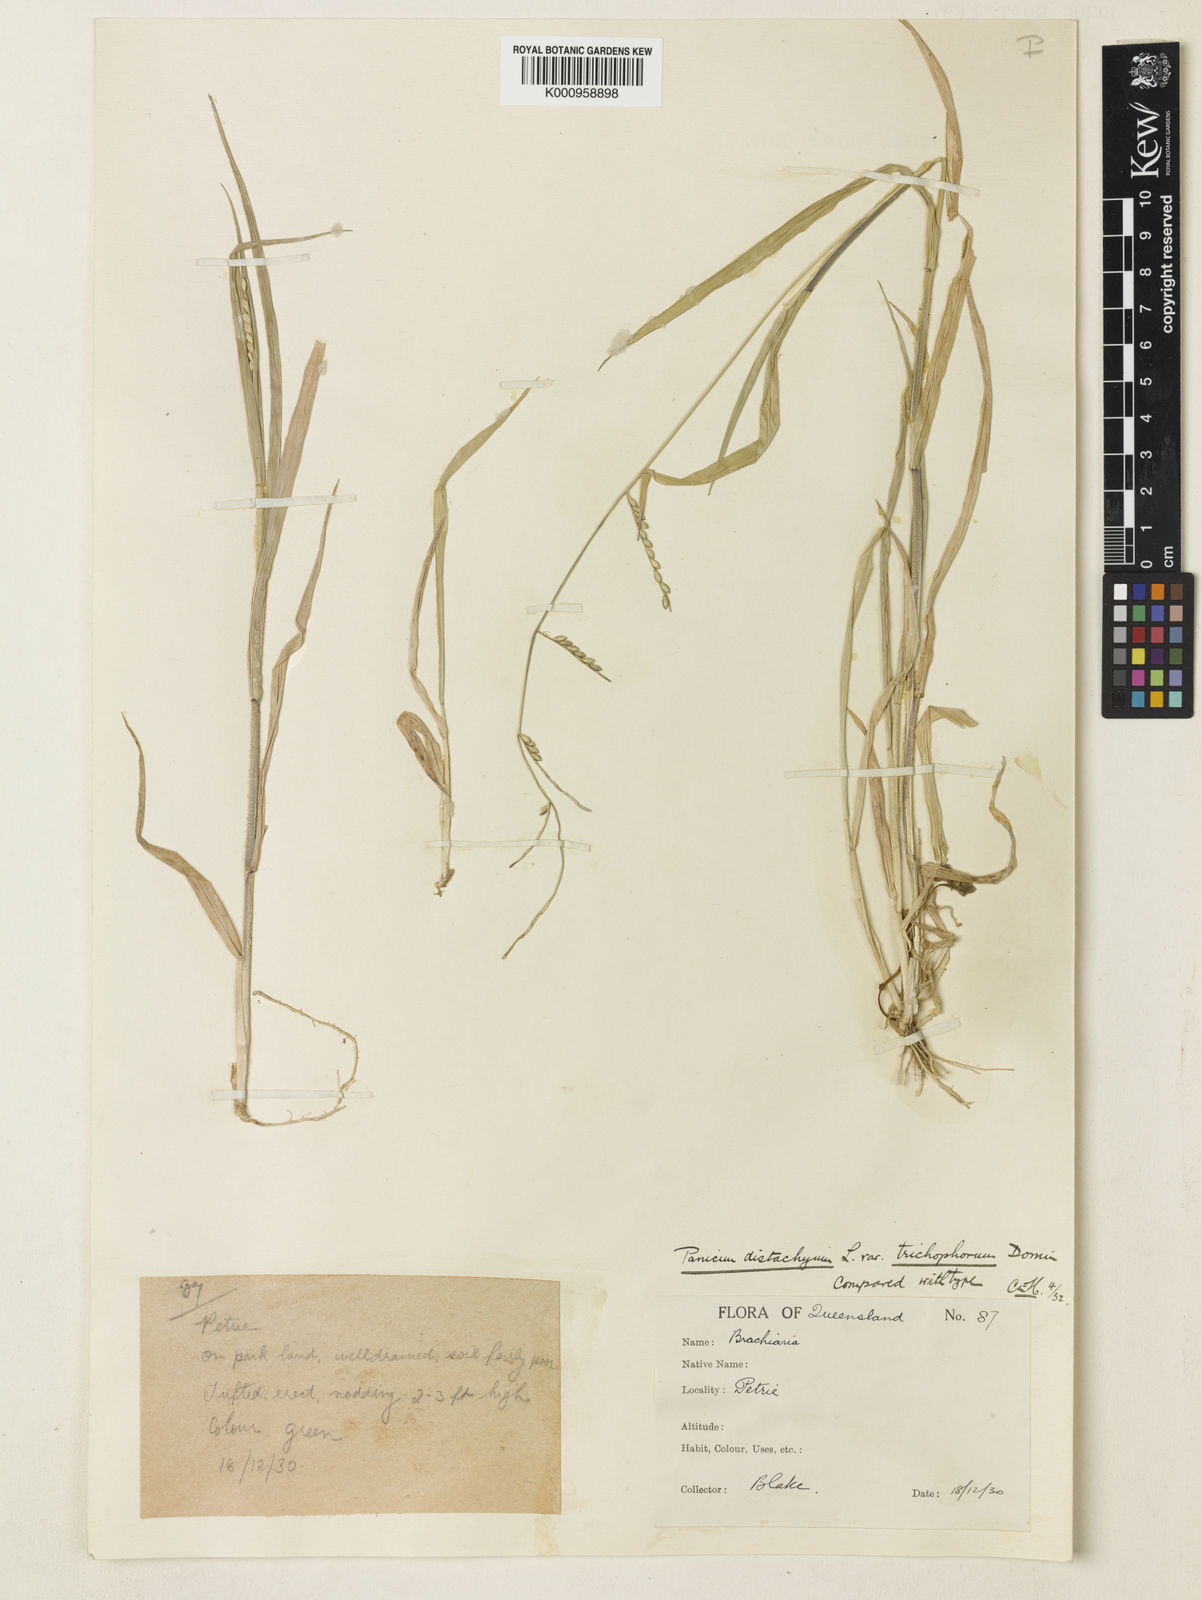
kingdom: Plantae
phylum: Tracheophyta
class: Liliopsida
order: Poales
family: Poaceae
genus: Urochloa
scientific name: Urochloa subquadripara
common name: Armgrass millet
